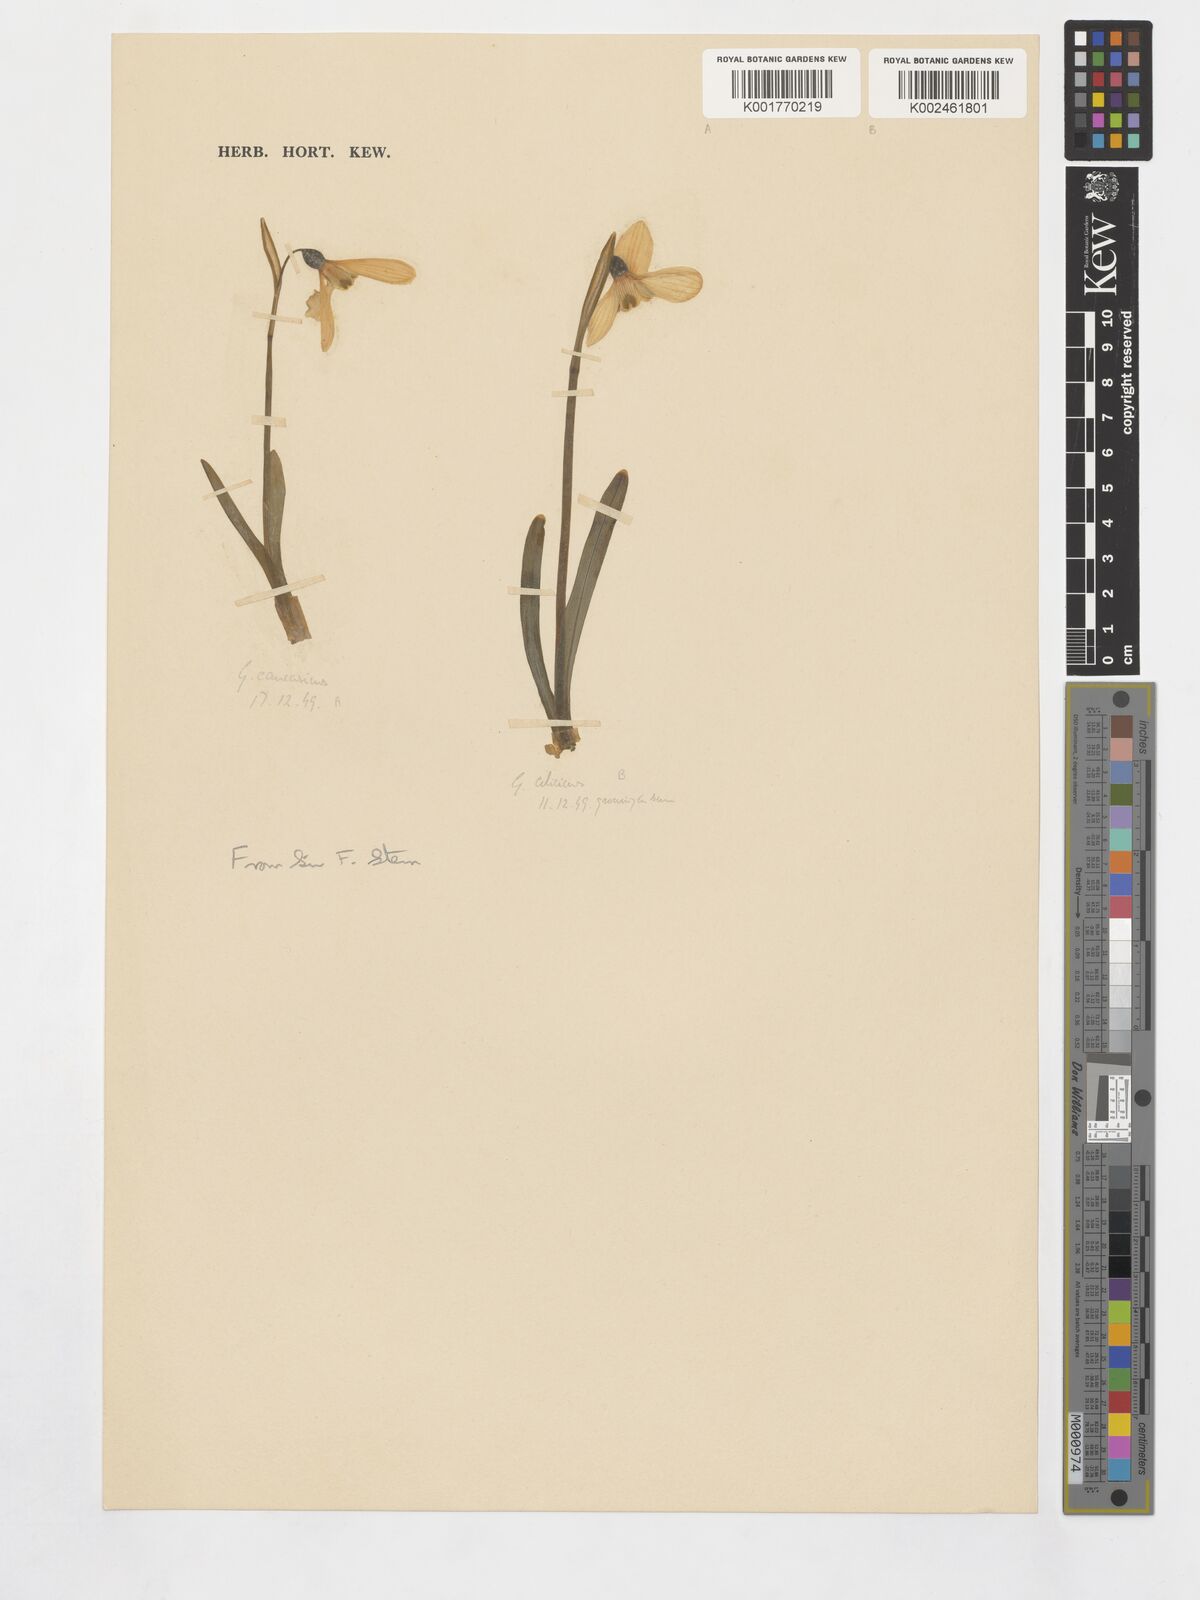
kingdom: Plantae
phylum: Tracheophyta
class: Liliopsida
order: Asparagales
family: Amaryllidaceae
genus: Galanthus
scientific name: Galanthus cilicicus
